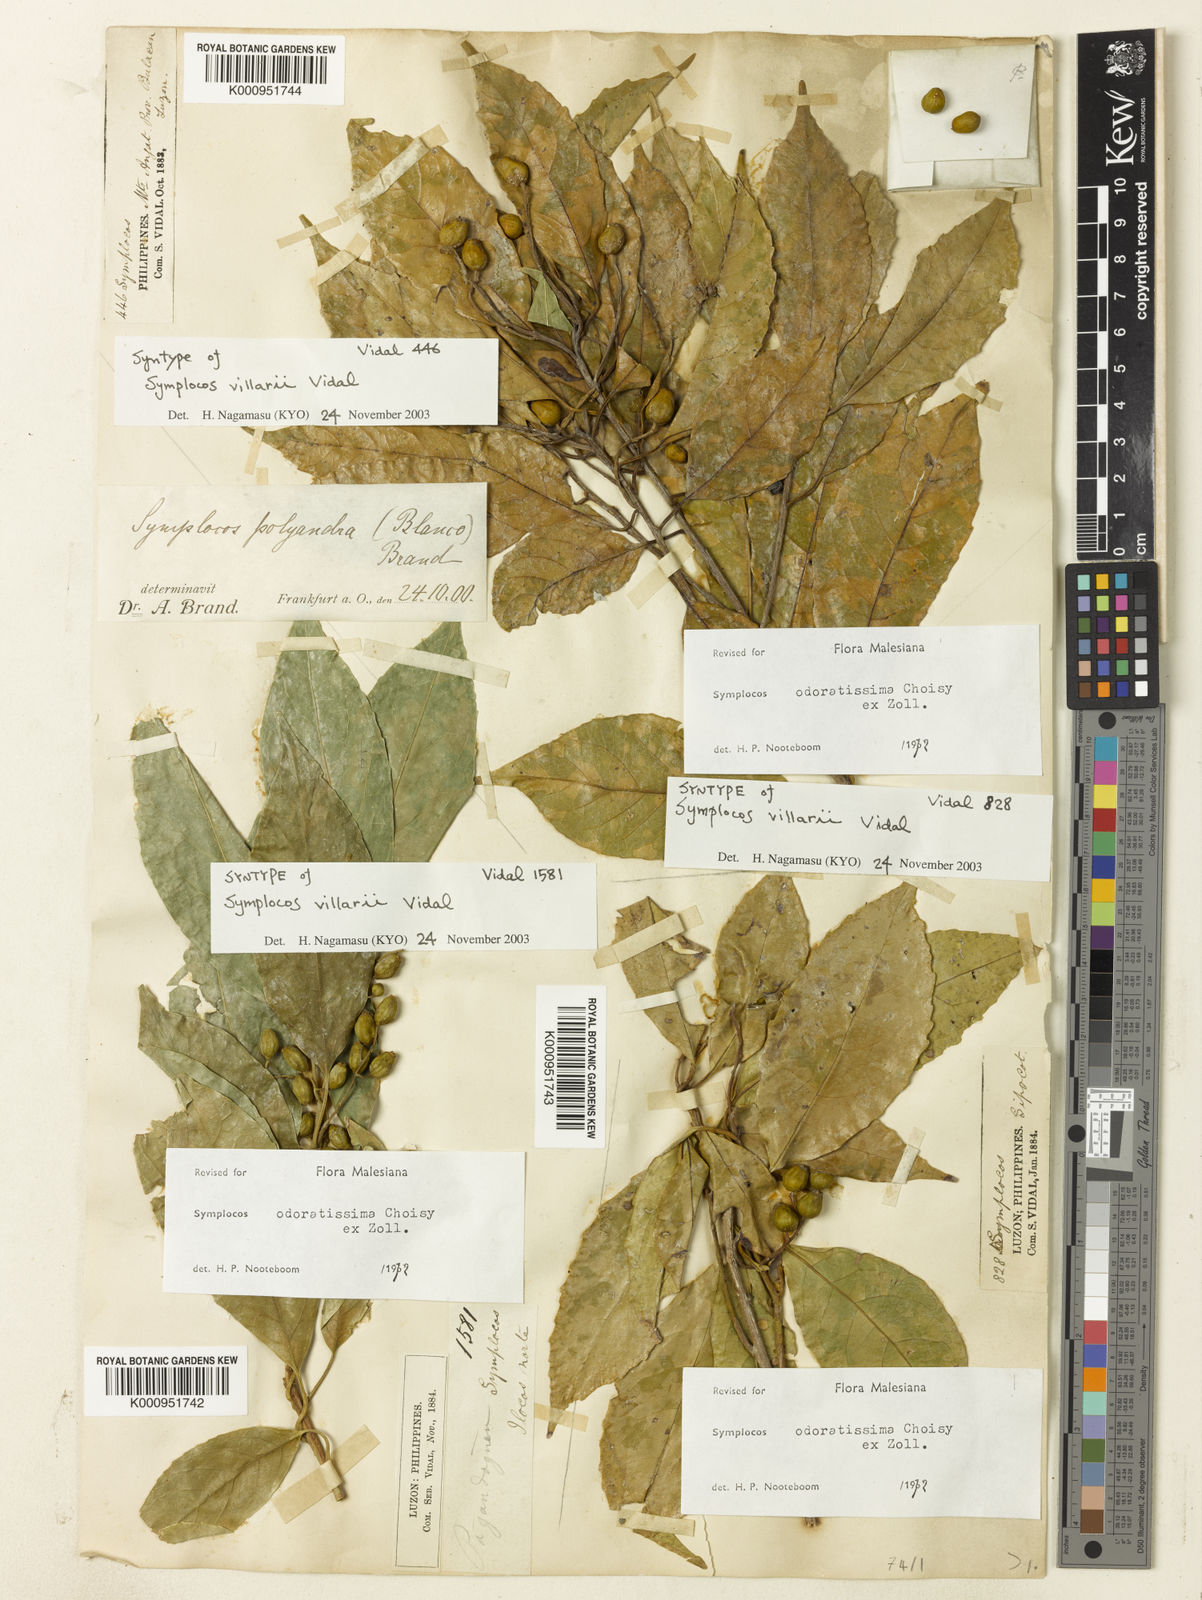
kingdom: Plantae
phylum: Tracheophyta
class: Magnoliopsida
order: Ericales
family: Symplocaceae
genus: Symplocos
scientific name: Symplocos odoratissima
